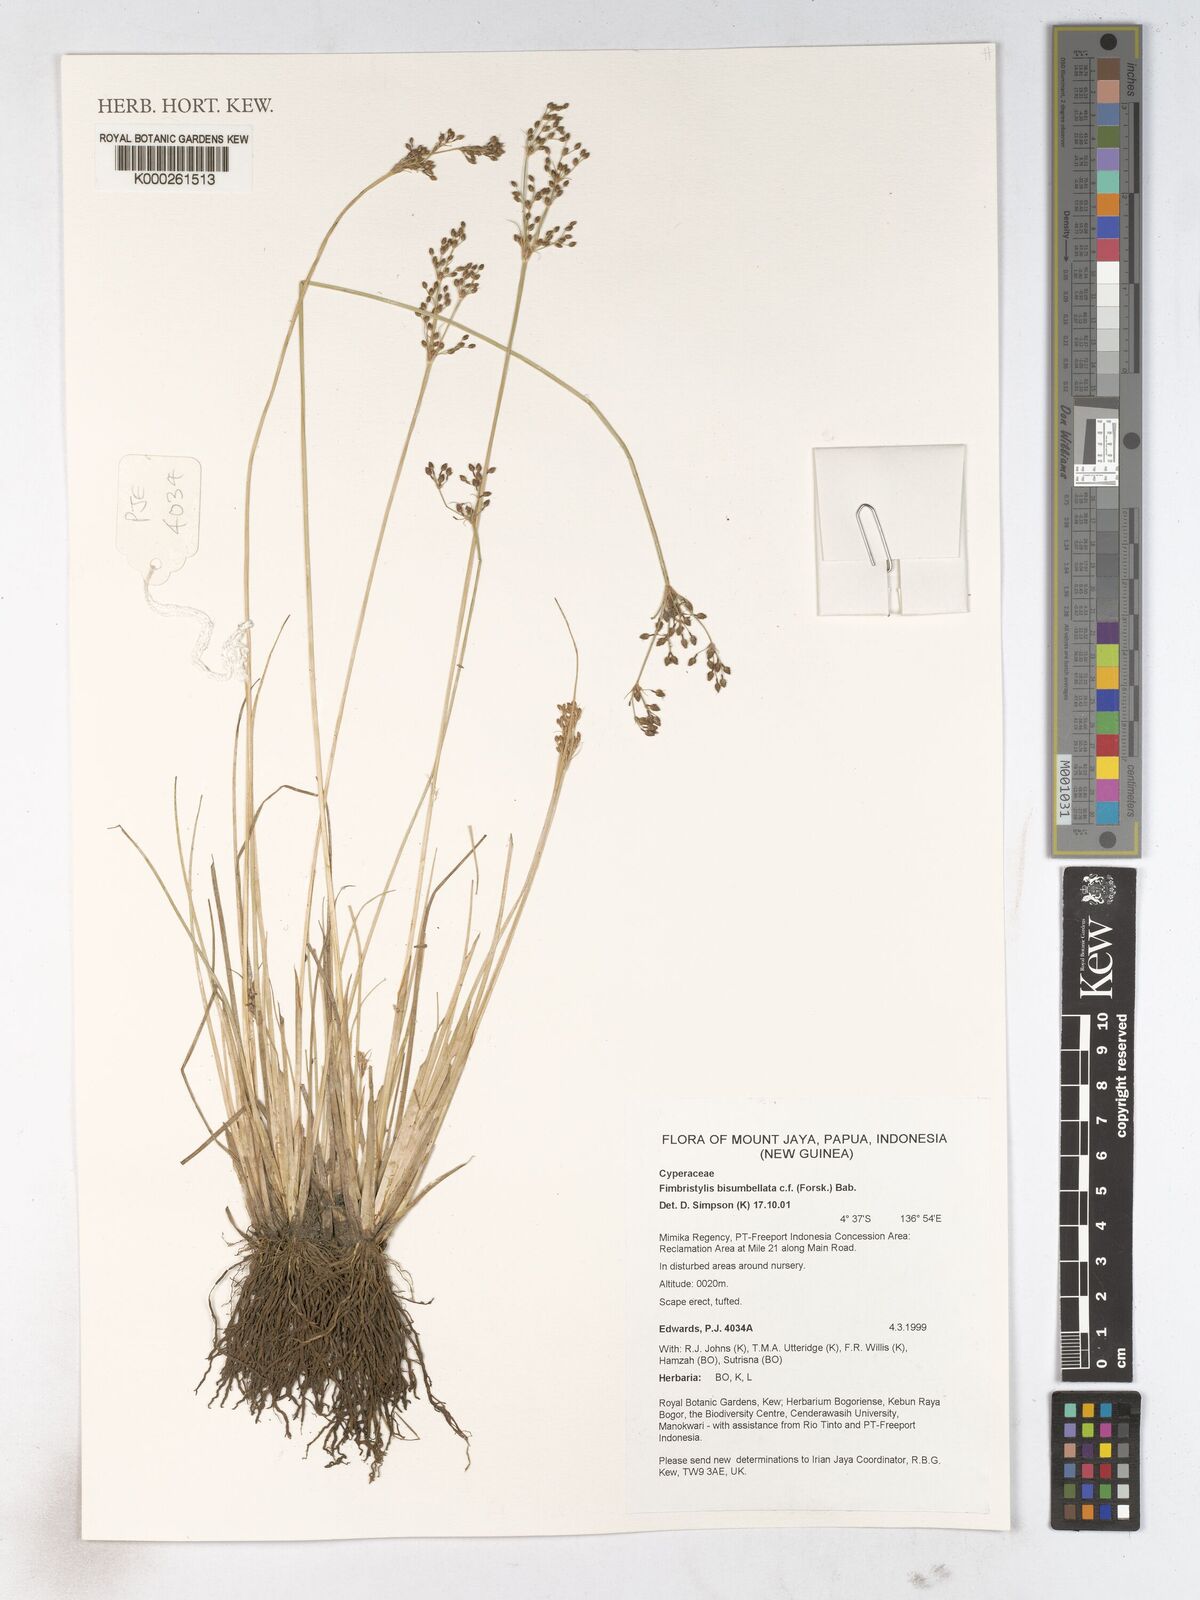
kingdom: Plantae
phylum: Tracheophyta
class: Liliopsida
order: Poales
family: Cyperaceae
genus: Fimbristylis
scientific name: Fimbristylis bisumbellata
